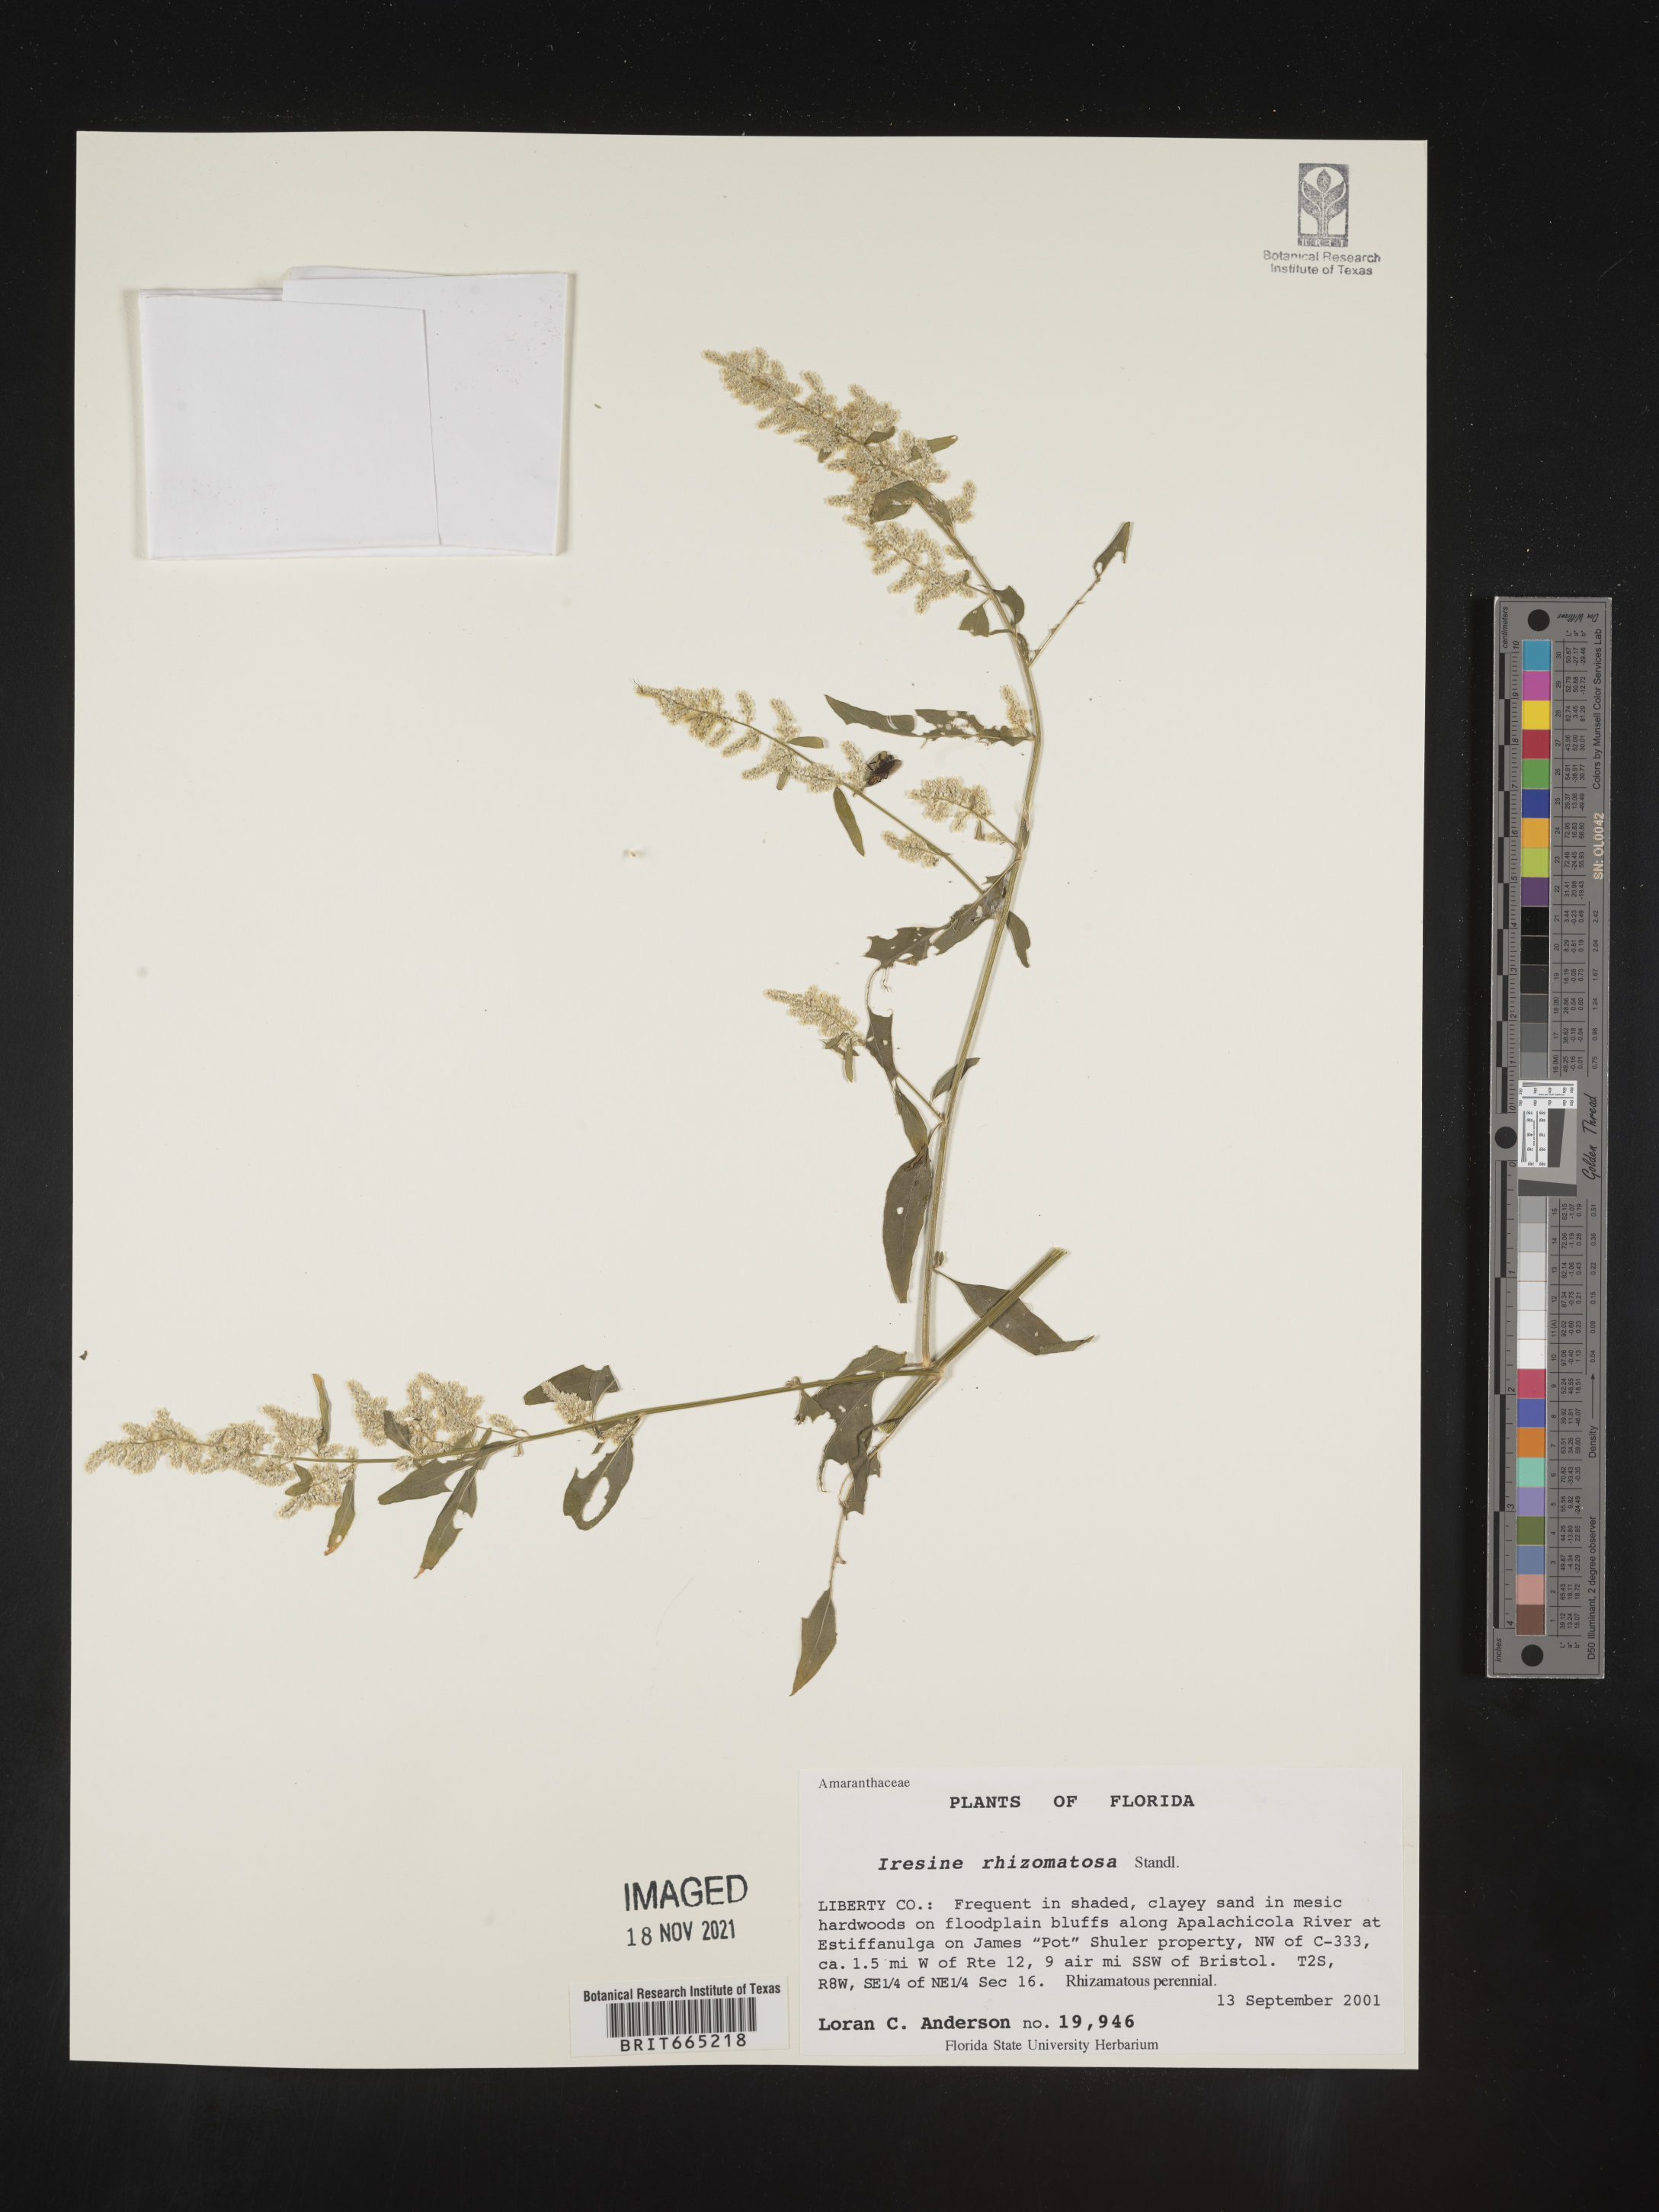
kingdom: Plantae
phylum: Tracheophyta
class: Magnoliopsida
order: Caryophyllales
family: Amaranthaceae
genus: Iresine
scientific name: Iresine rhizomatosa
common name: Juda's-bush
